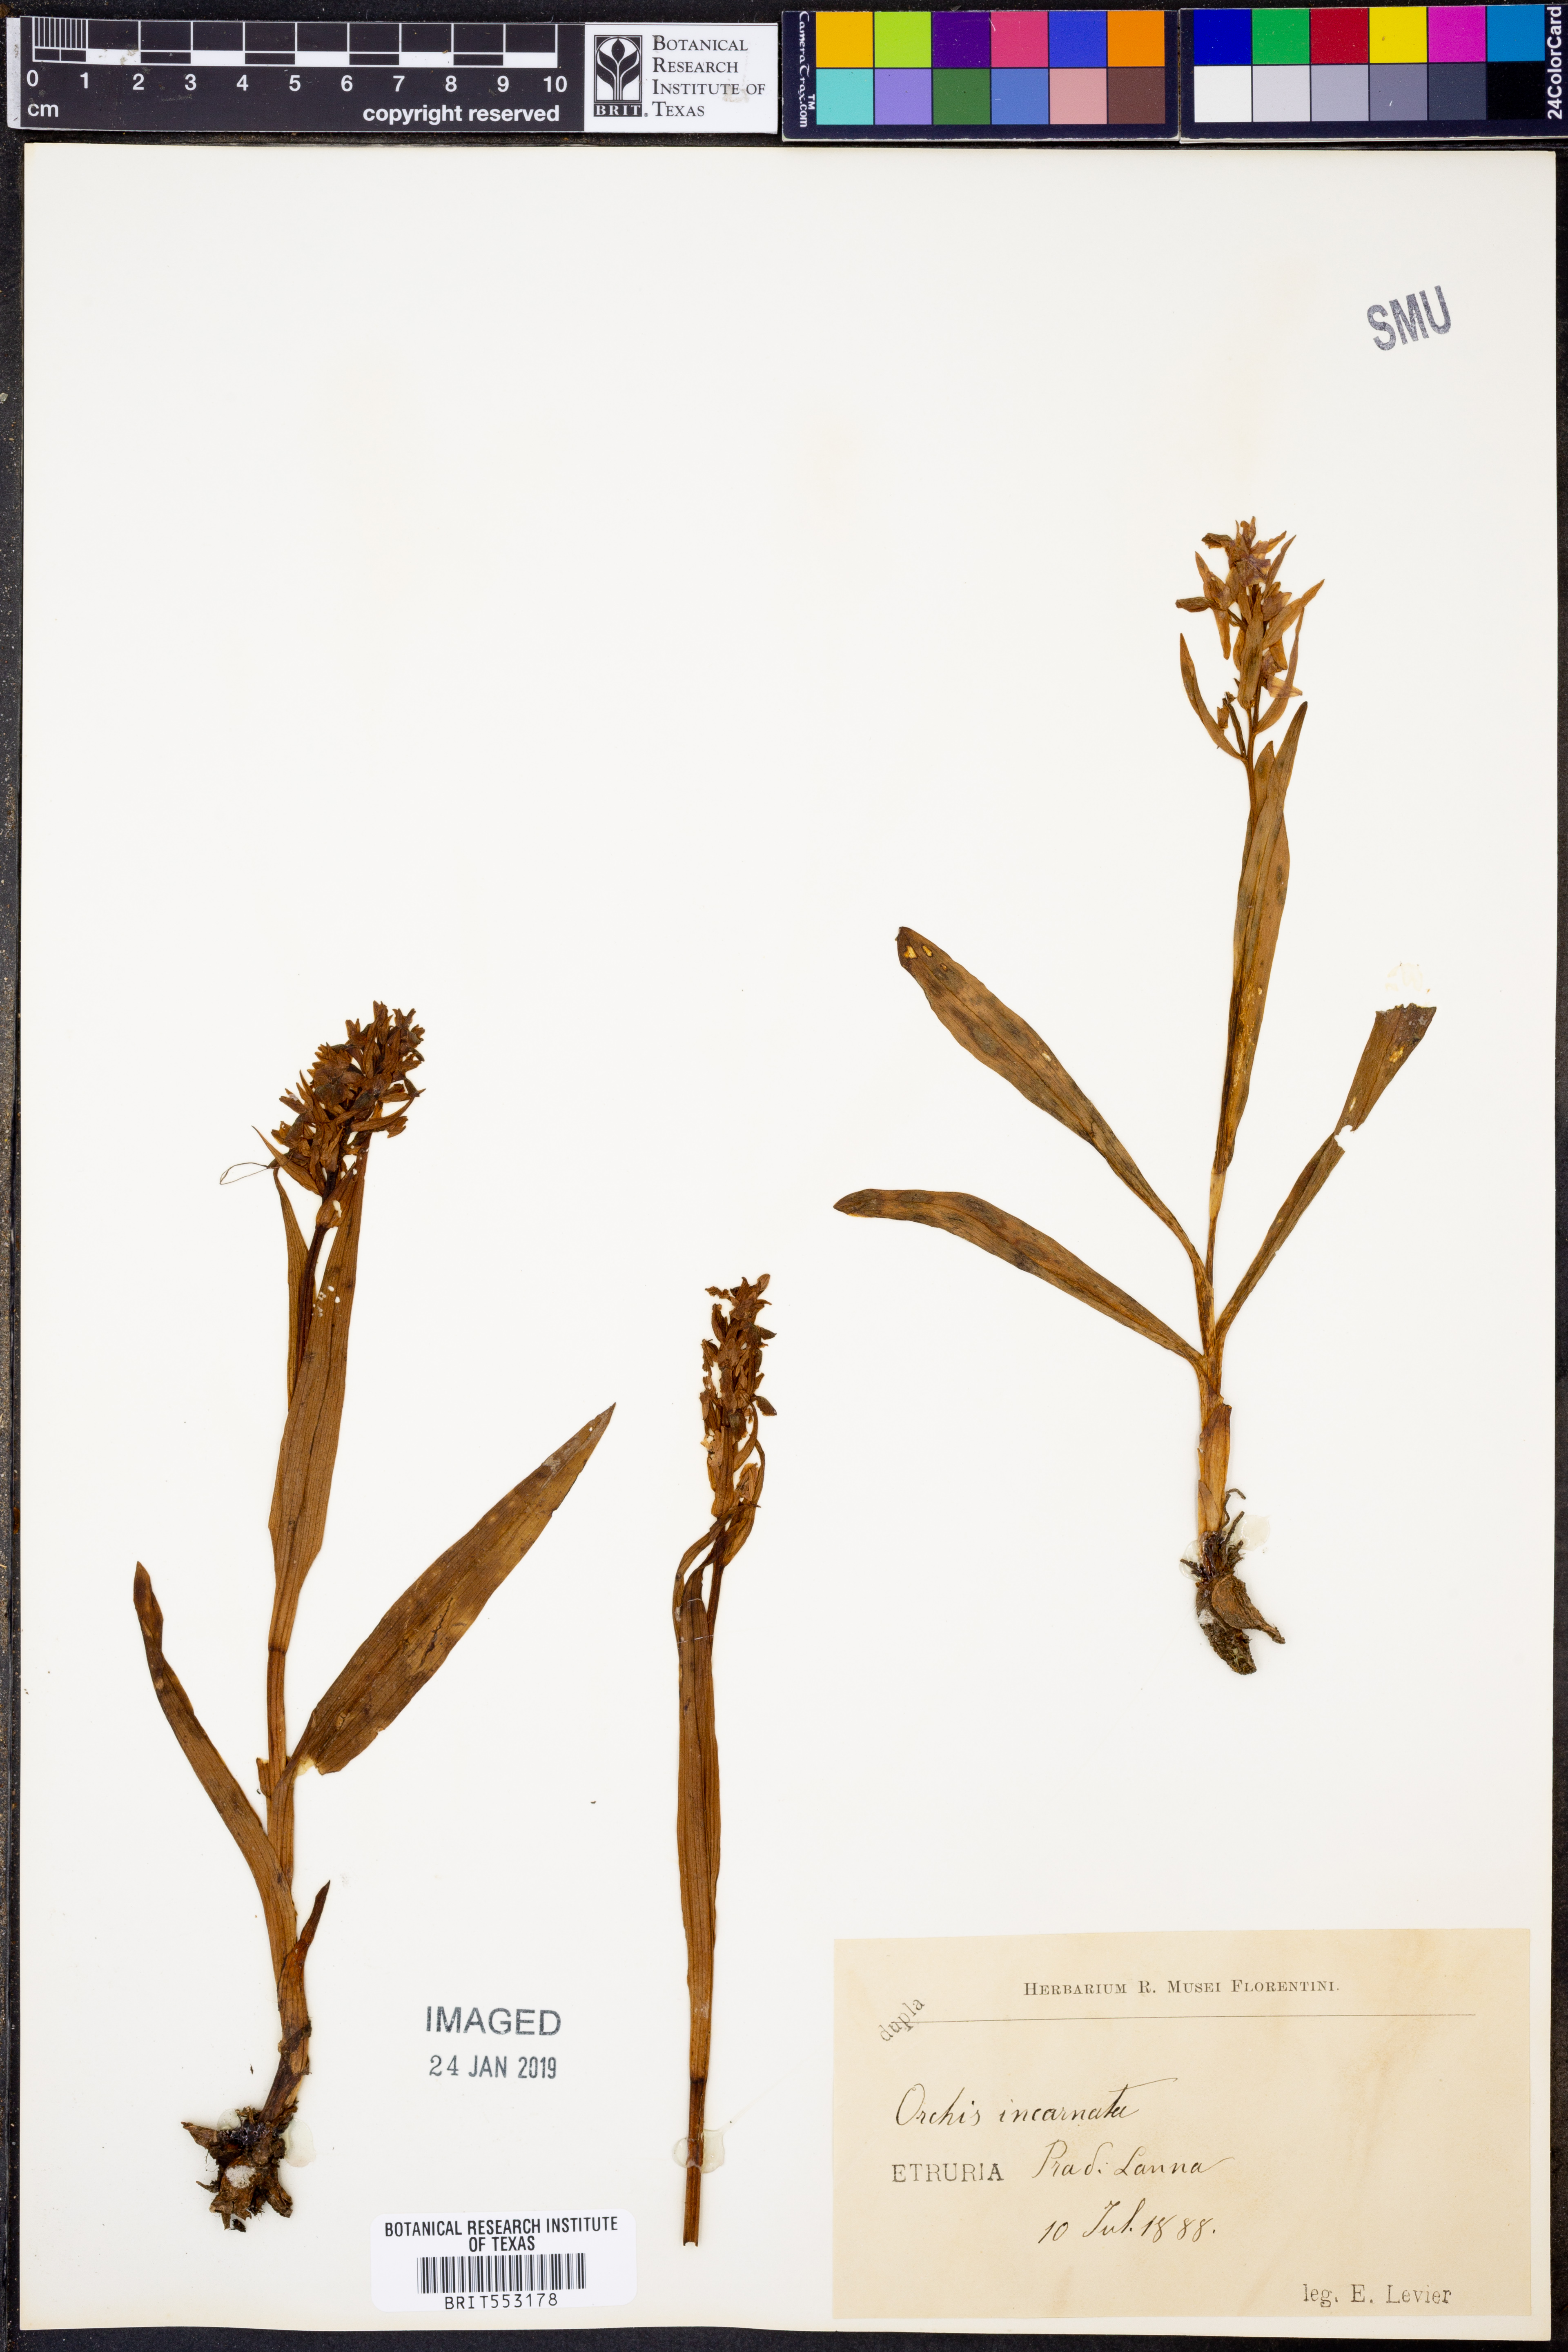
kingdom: Plantae
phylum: Tracheophyta
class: Liliopsida
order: Asparagales
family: Orchidaceae
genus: Dactylorhiza
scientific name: Dactylorhiza
